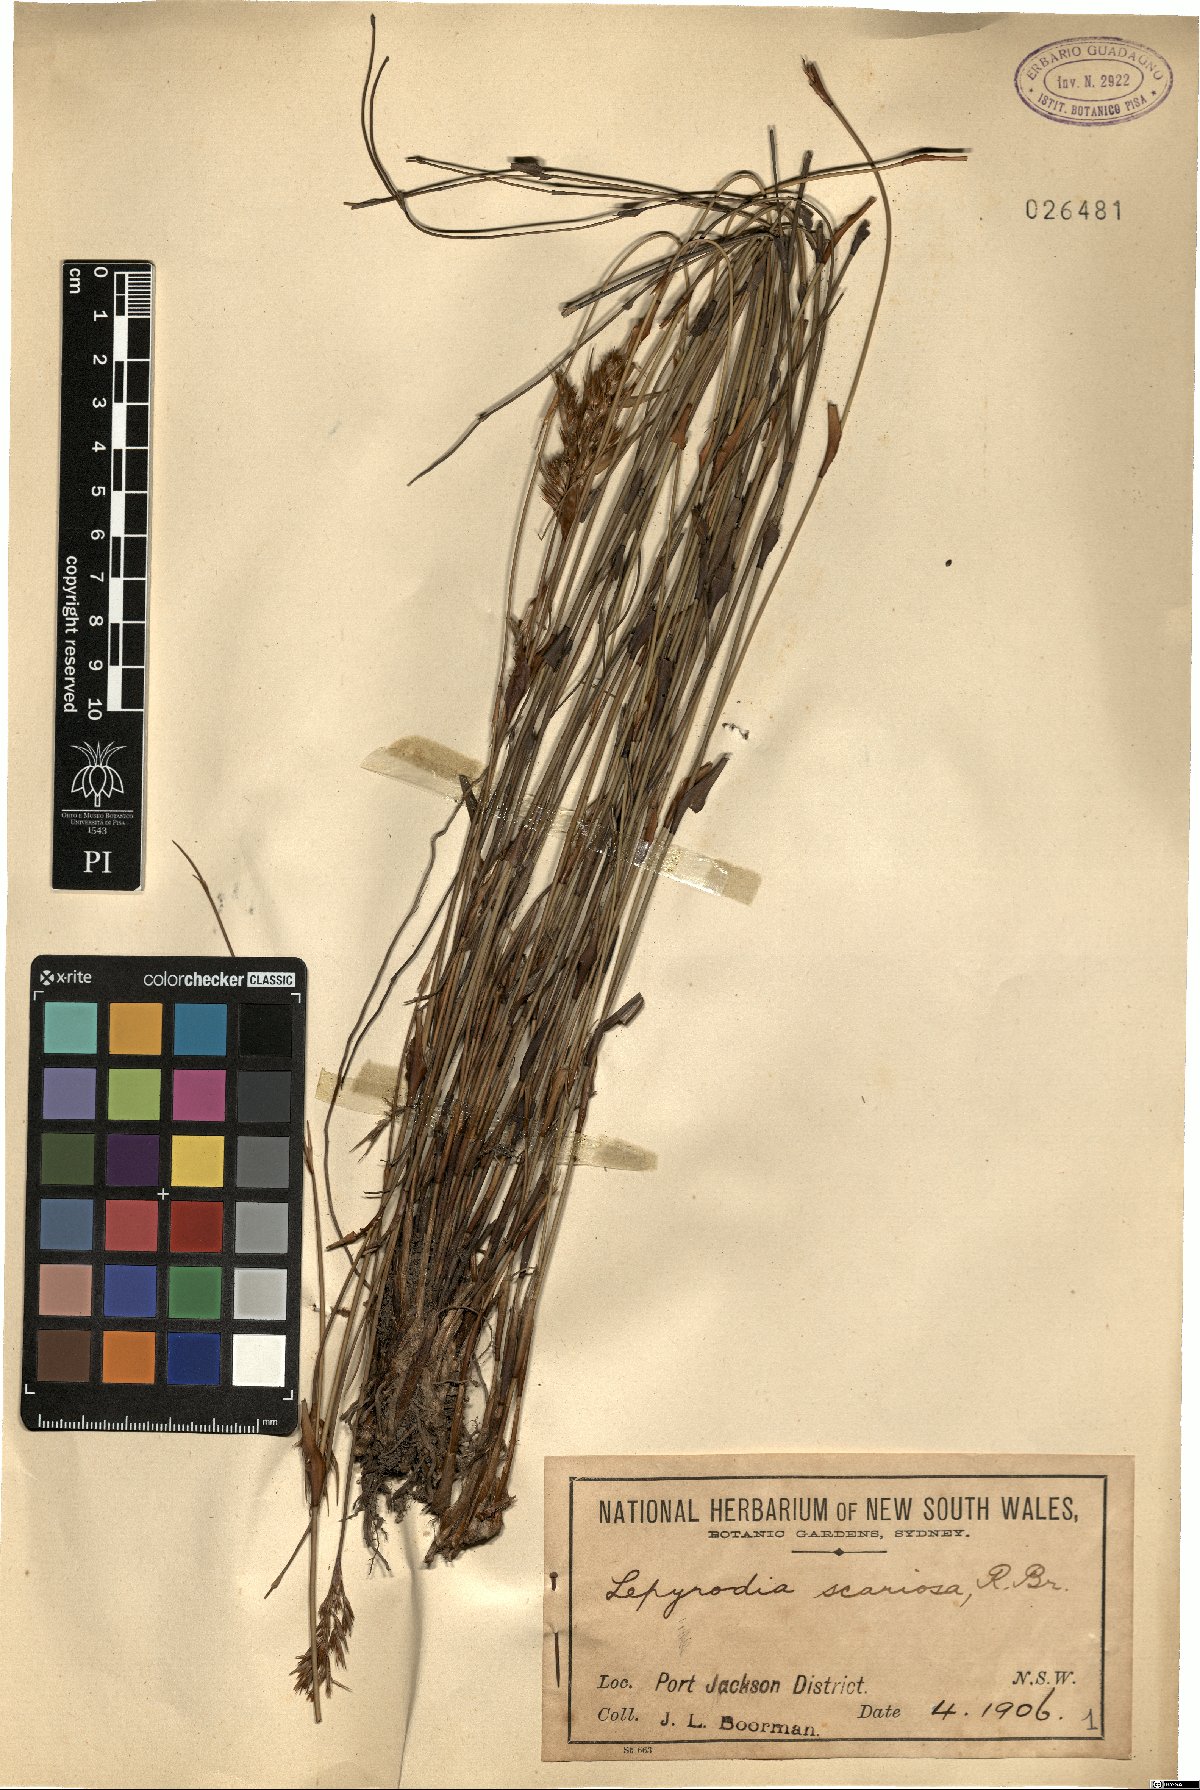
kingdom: Plantae
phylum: Tracheophyta
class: Liliopsida
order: Poales
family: Restionaceae
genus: Lepyrodia
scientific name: Lepyrodia scariosa
